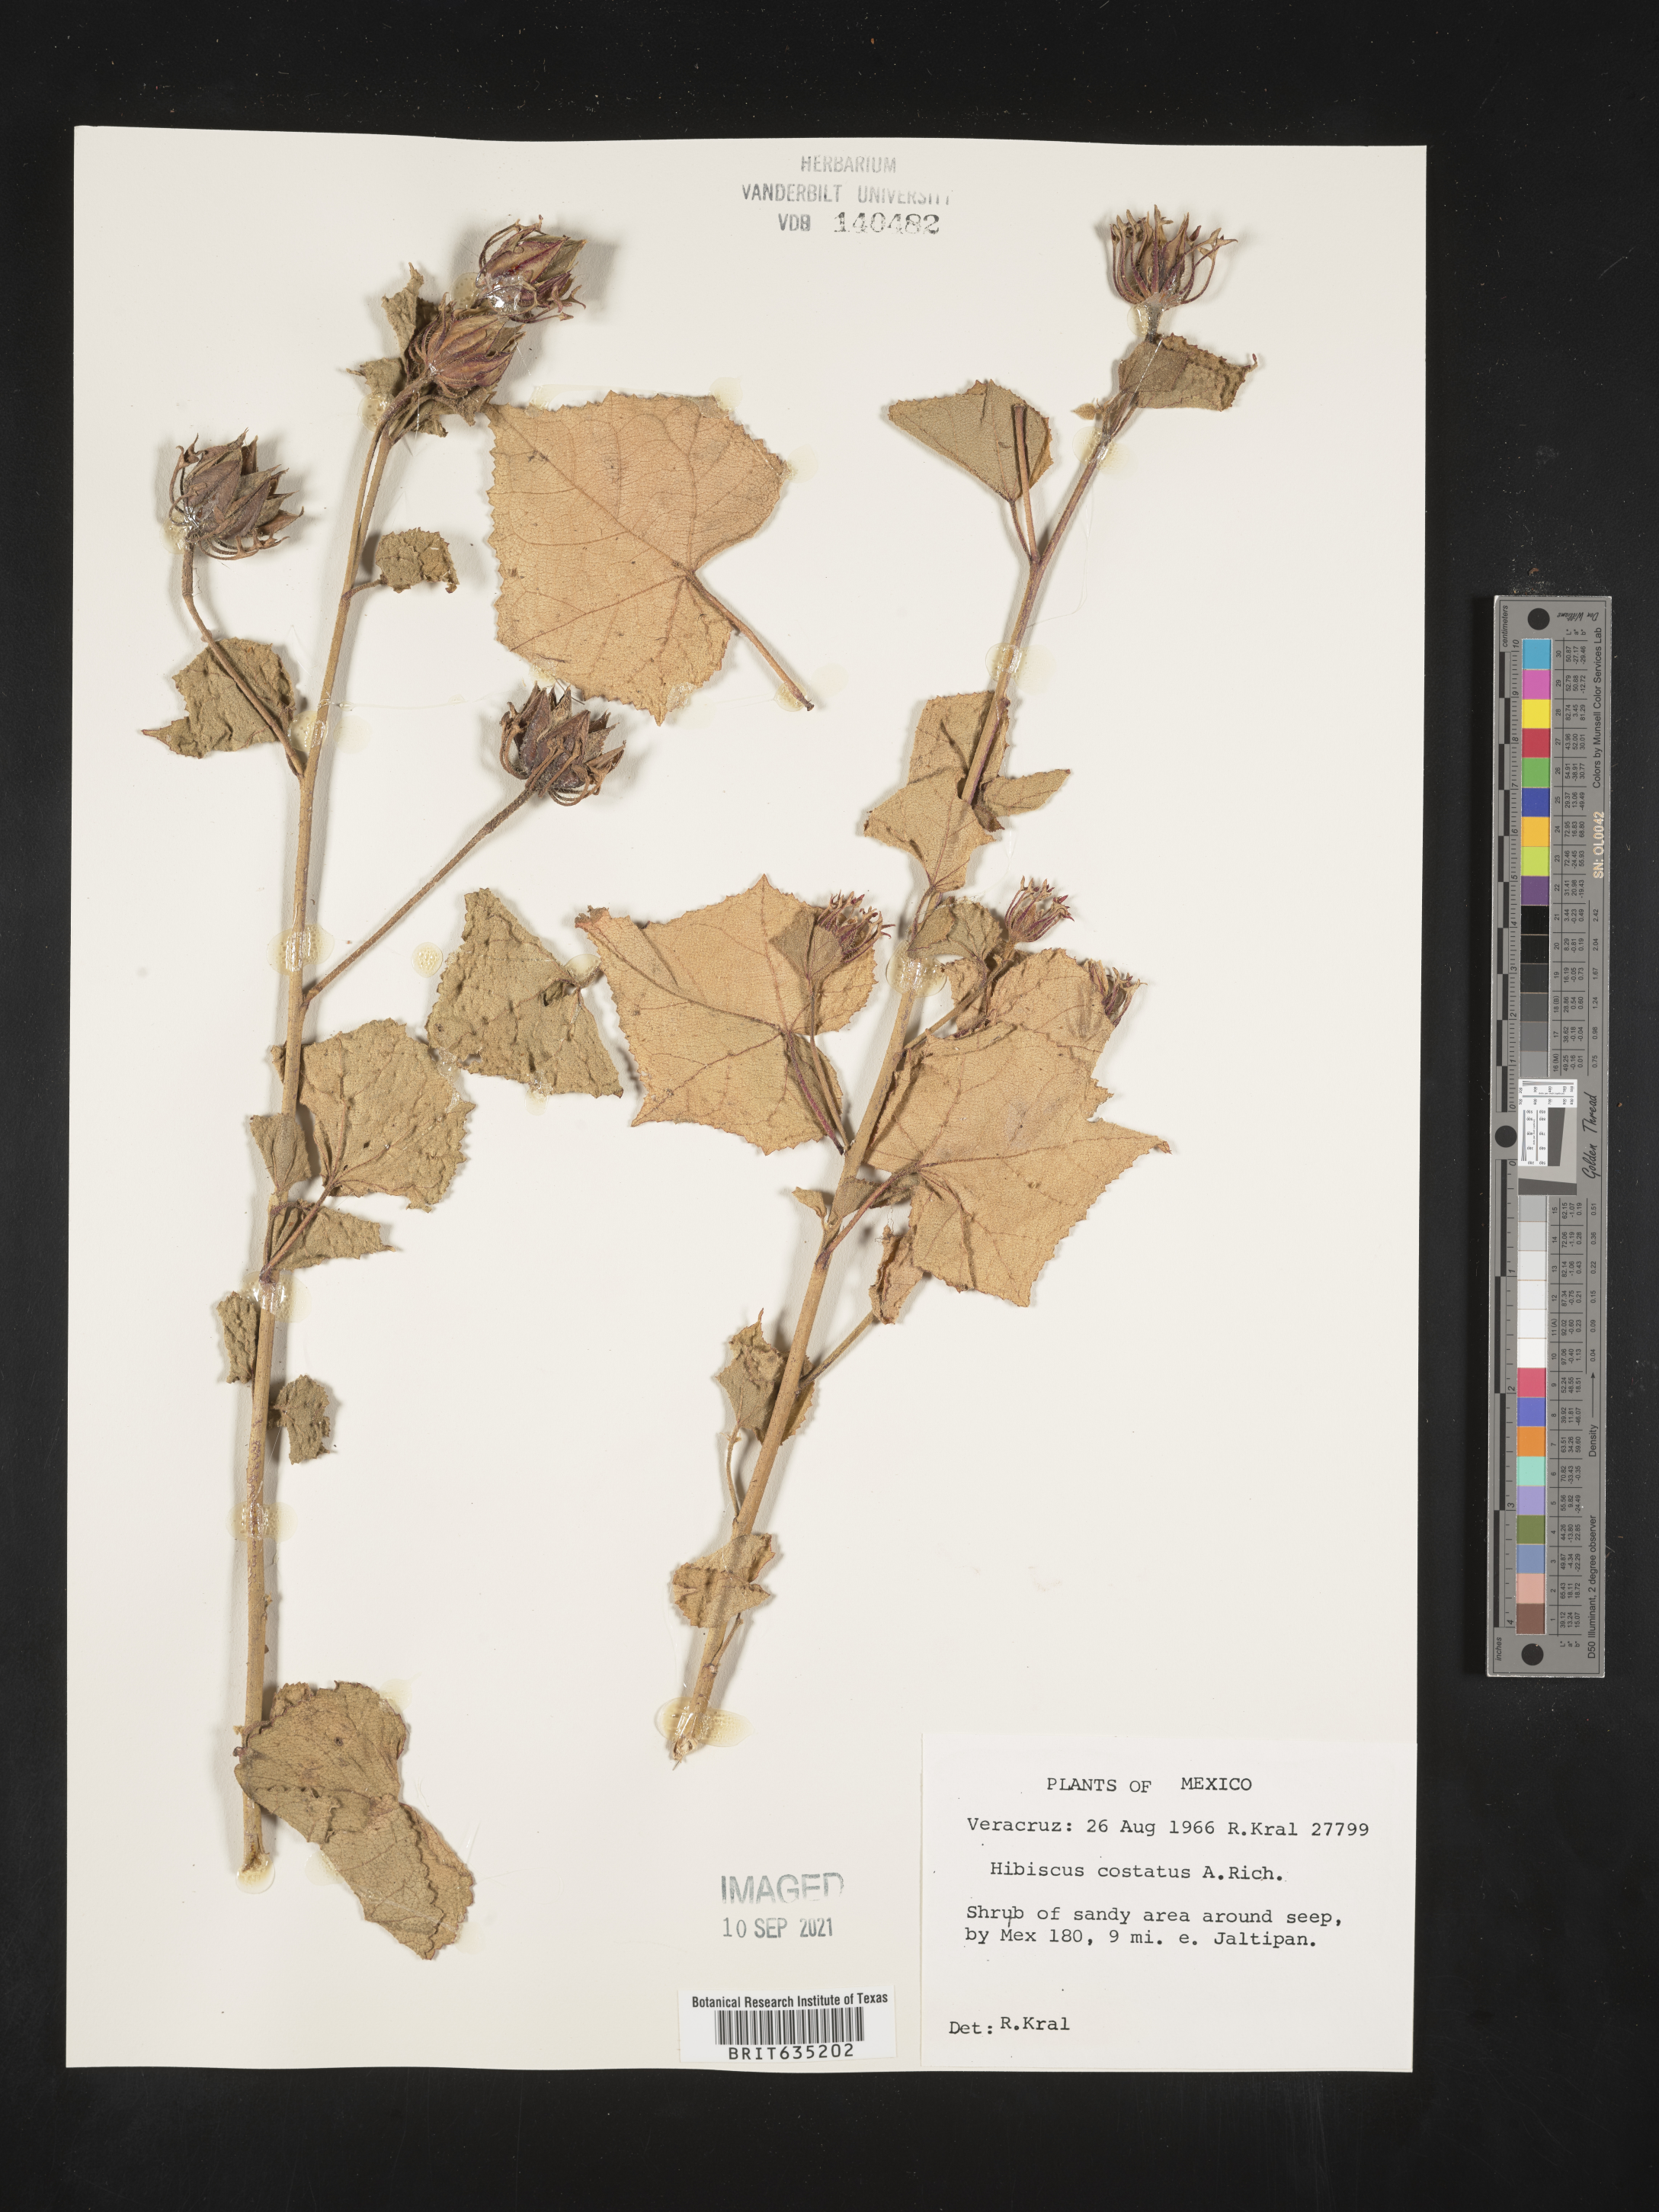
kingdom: Plantae
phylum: Tracheophyta
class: Magnoliopsida
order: Malvales
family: Malvaceae
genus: Hibiscus
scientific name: Hibiscus
